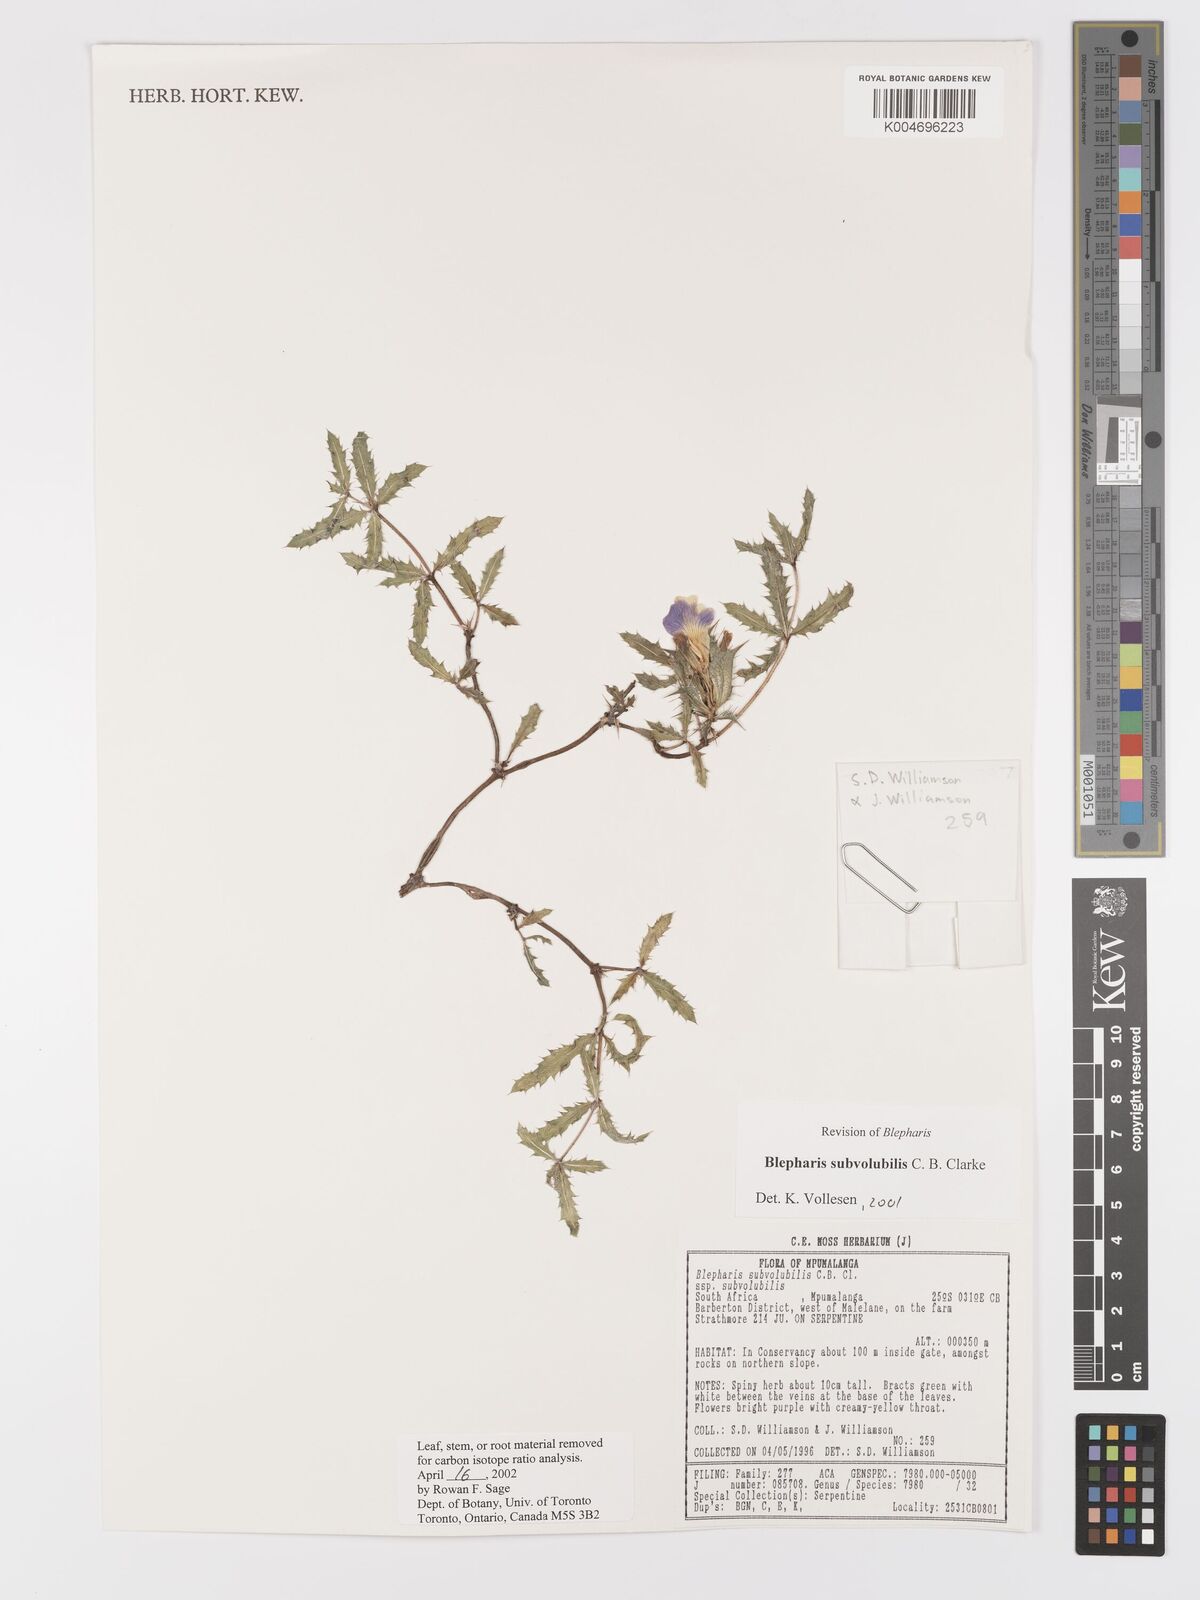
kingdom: Plantae
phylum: Tracheophyta
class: Magnoliopsida
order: Lamiales
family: Acanthaceae
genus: Blepharis
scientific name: Blepharis subvolubilis
